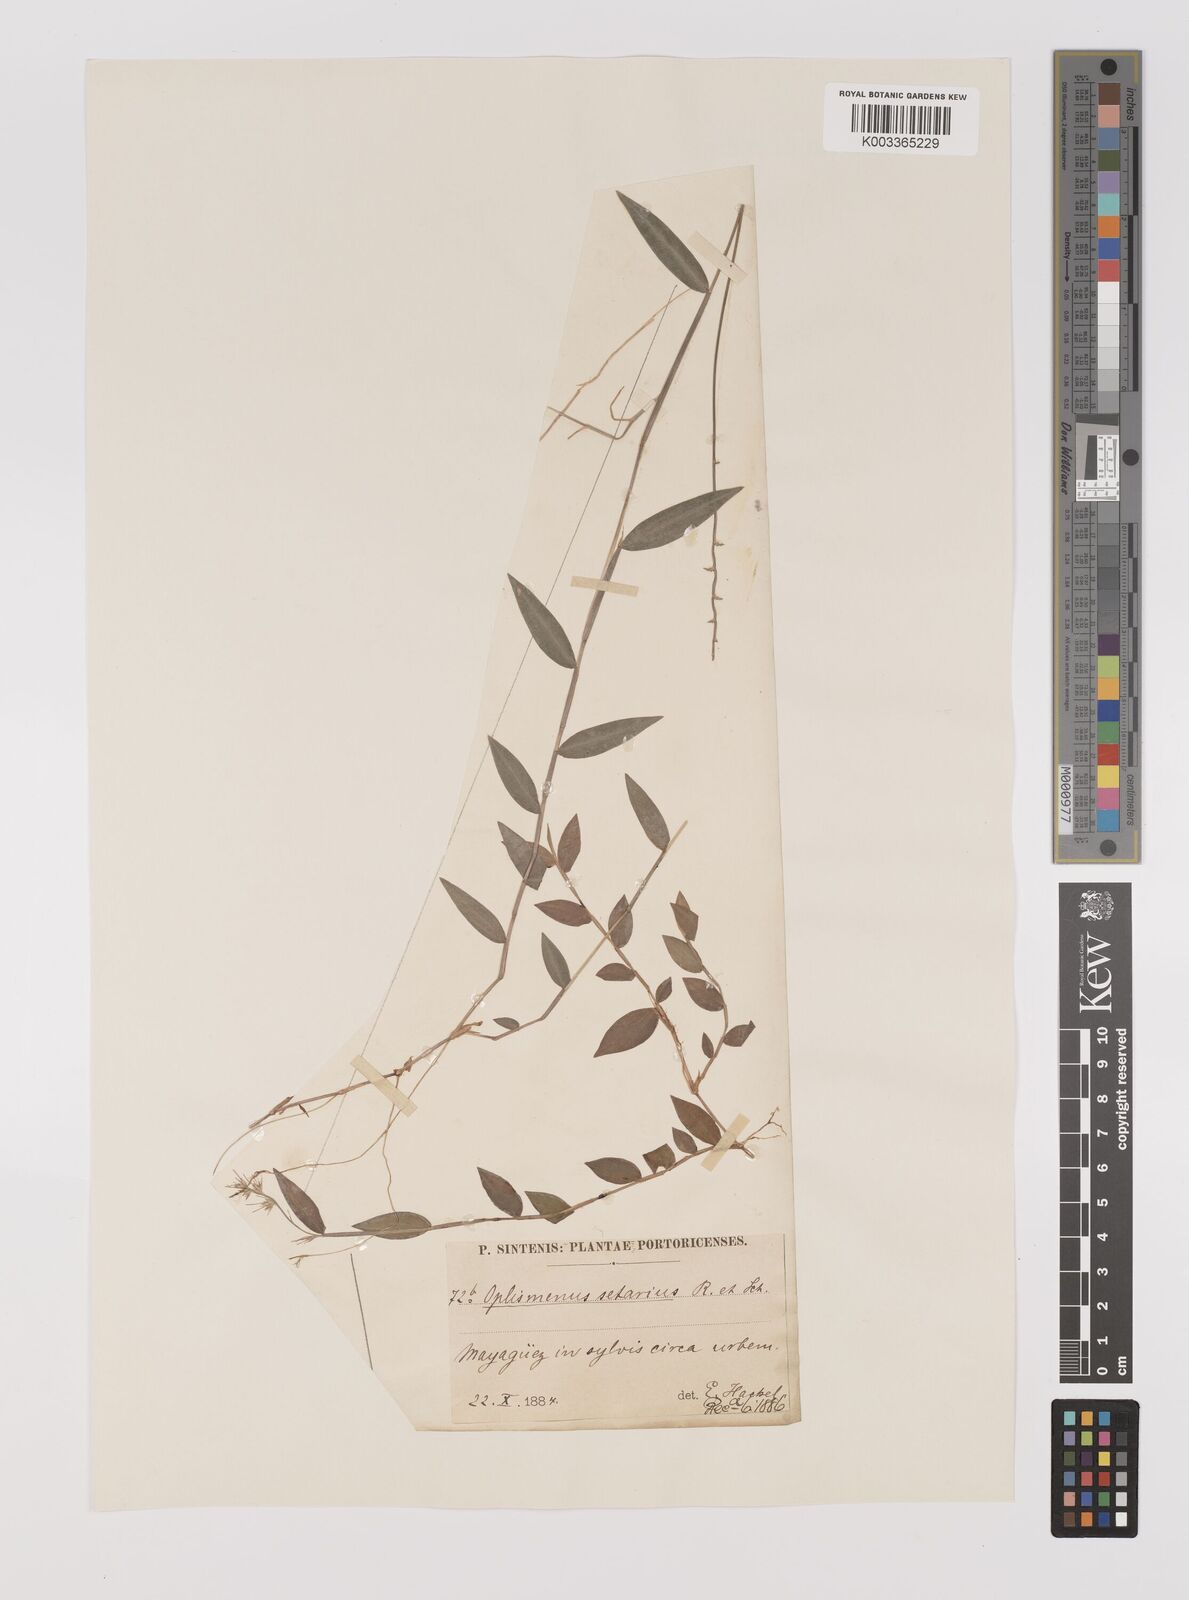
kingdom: Plantae
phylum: Tracheophyta
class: Liliopsida
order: Poales
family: Poaceae
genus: Oplismenus
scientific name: Oplismenus hirtellus
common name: Basketgrass
